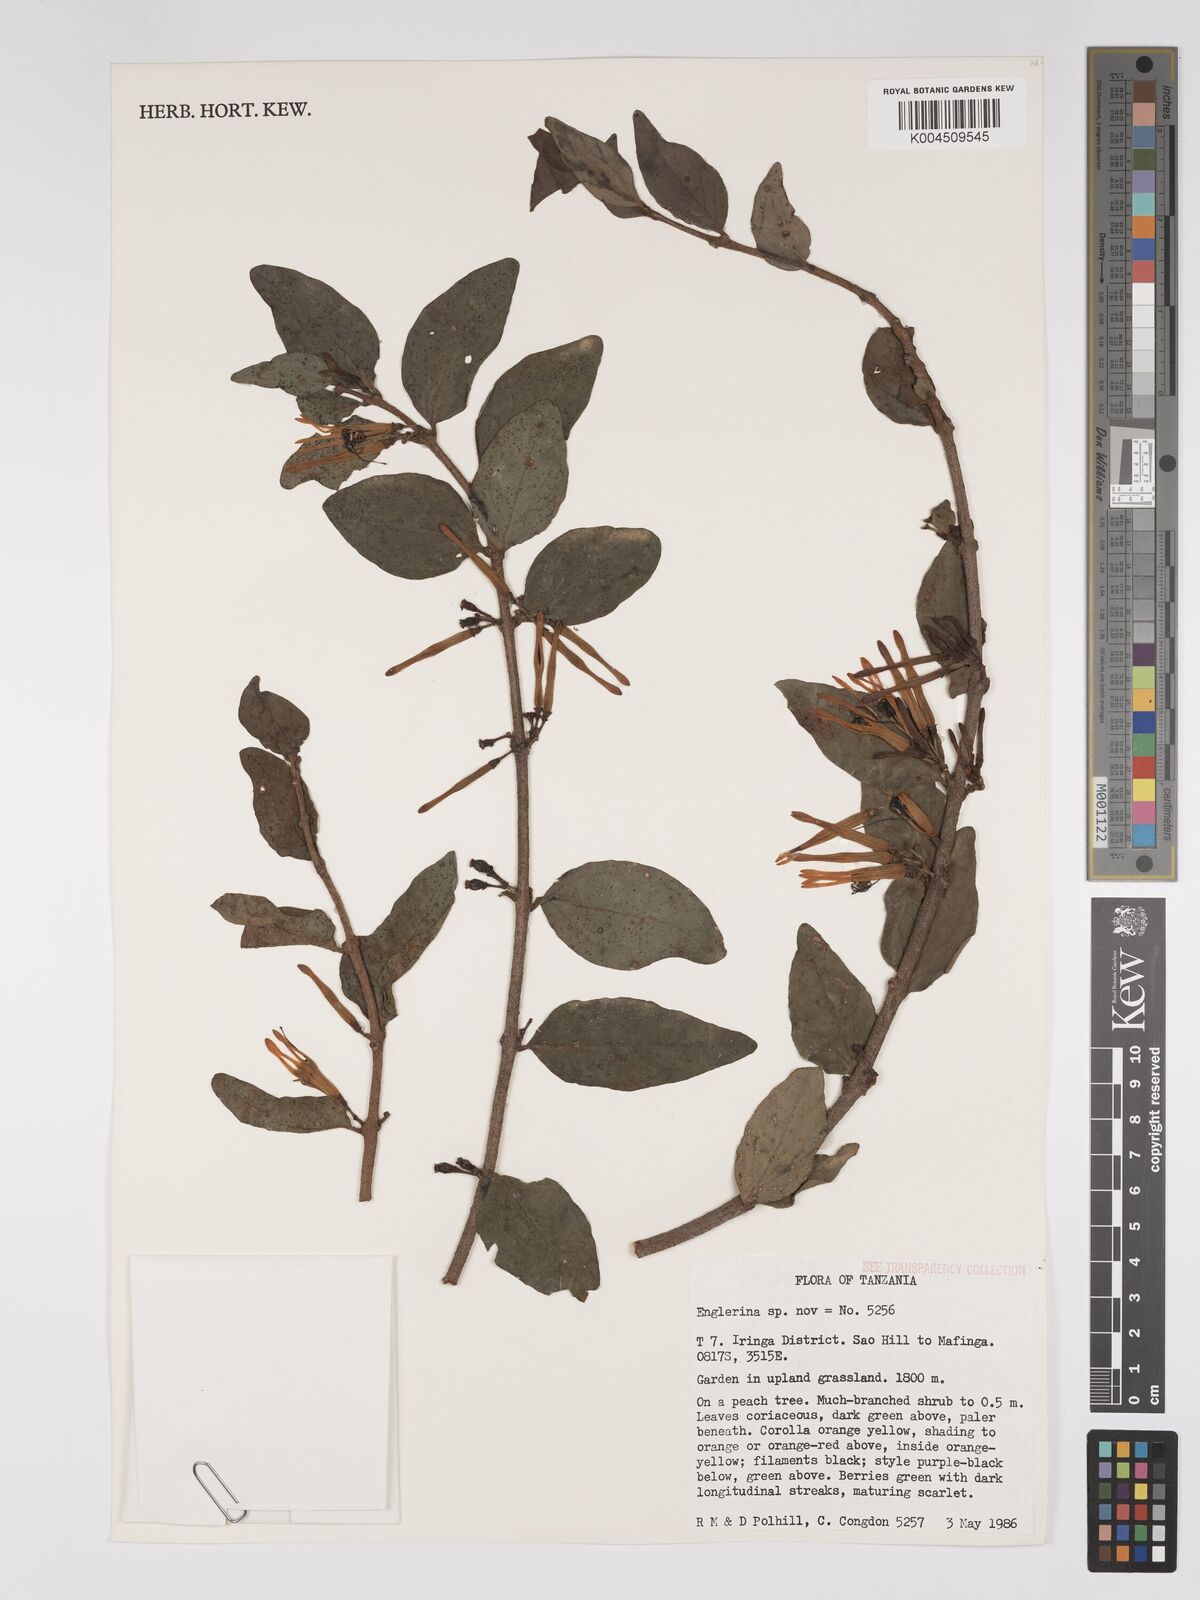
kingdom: Plantae
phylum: Tracheophyta
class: Magnoliopsida
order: Santalales
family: Loranthaceae
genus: Englerina
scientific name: Englerina inaequilatera
